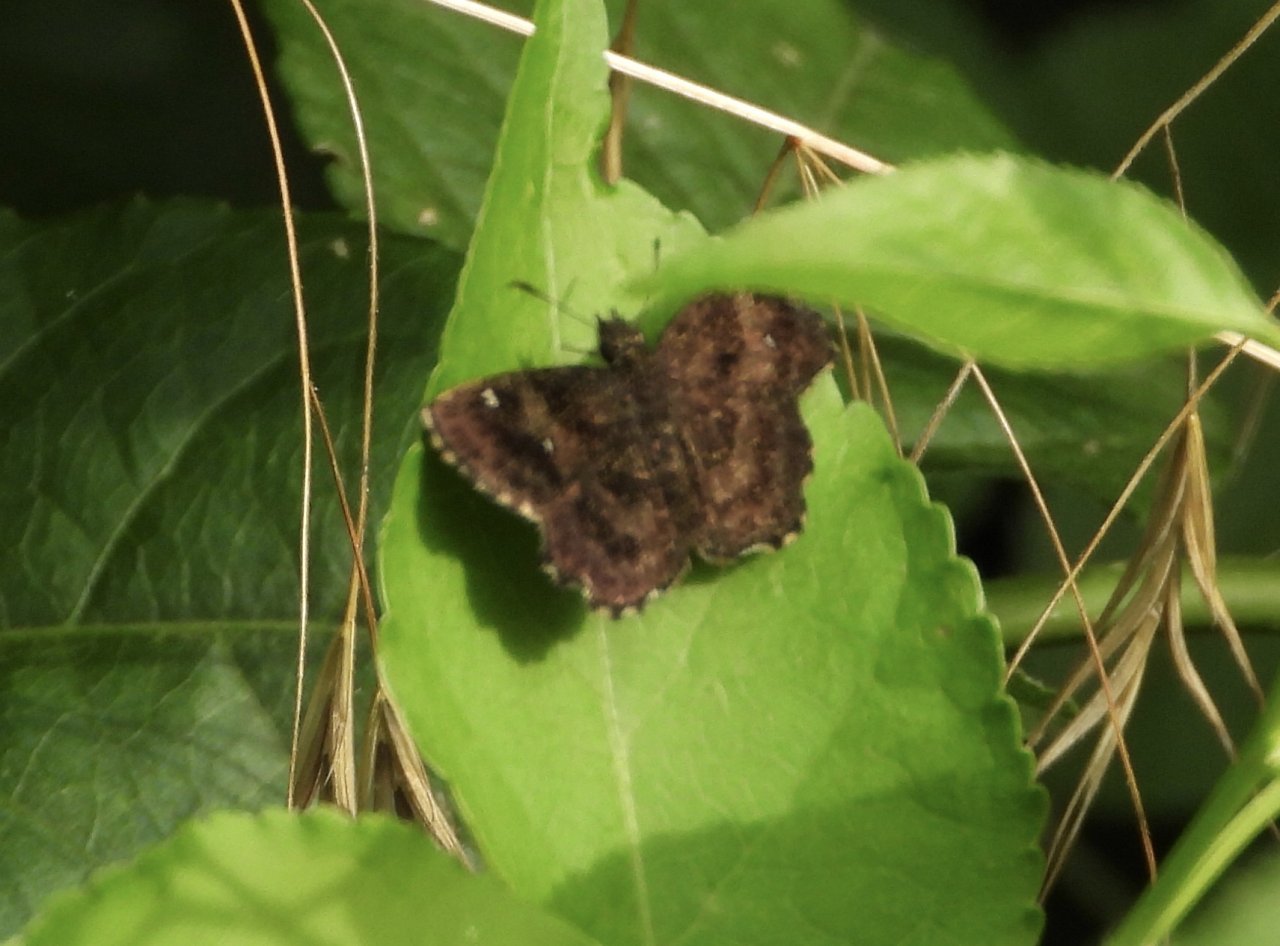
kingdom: Animalia
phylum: Arthropoda
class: Insecta
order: Lepidoptera
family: Hesperiidae
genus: Staphylus
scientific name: Staphylus mazans
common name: Hayhurst's Scallopwing
